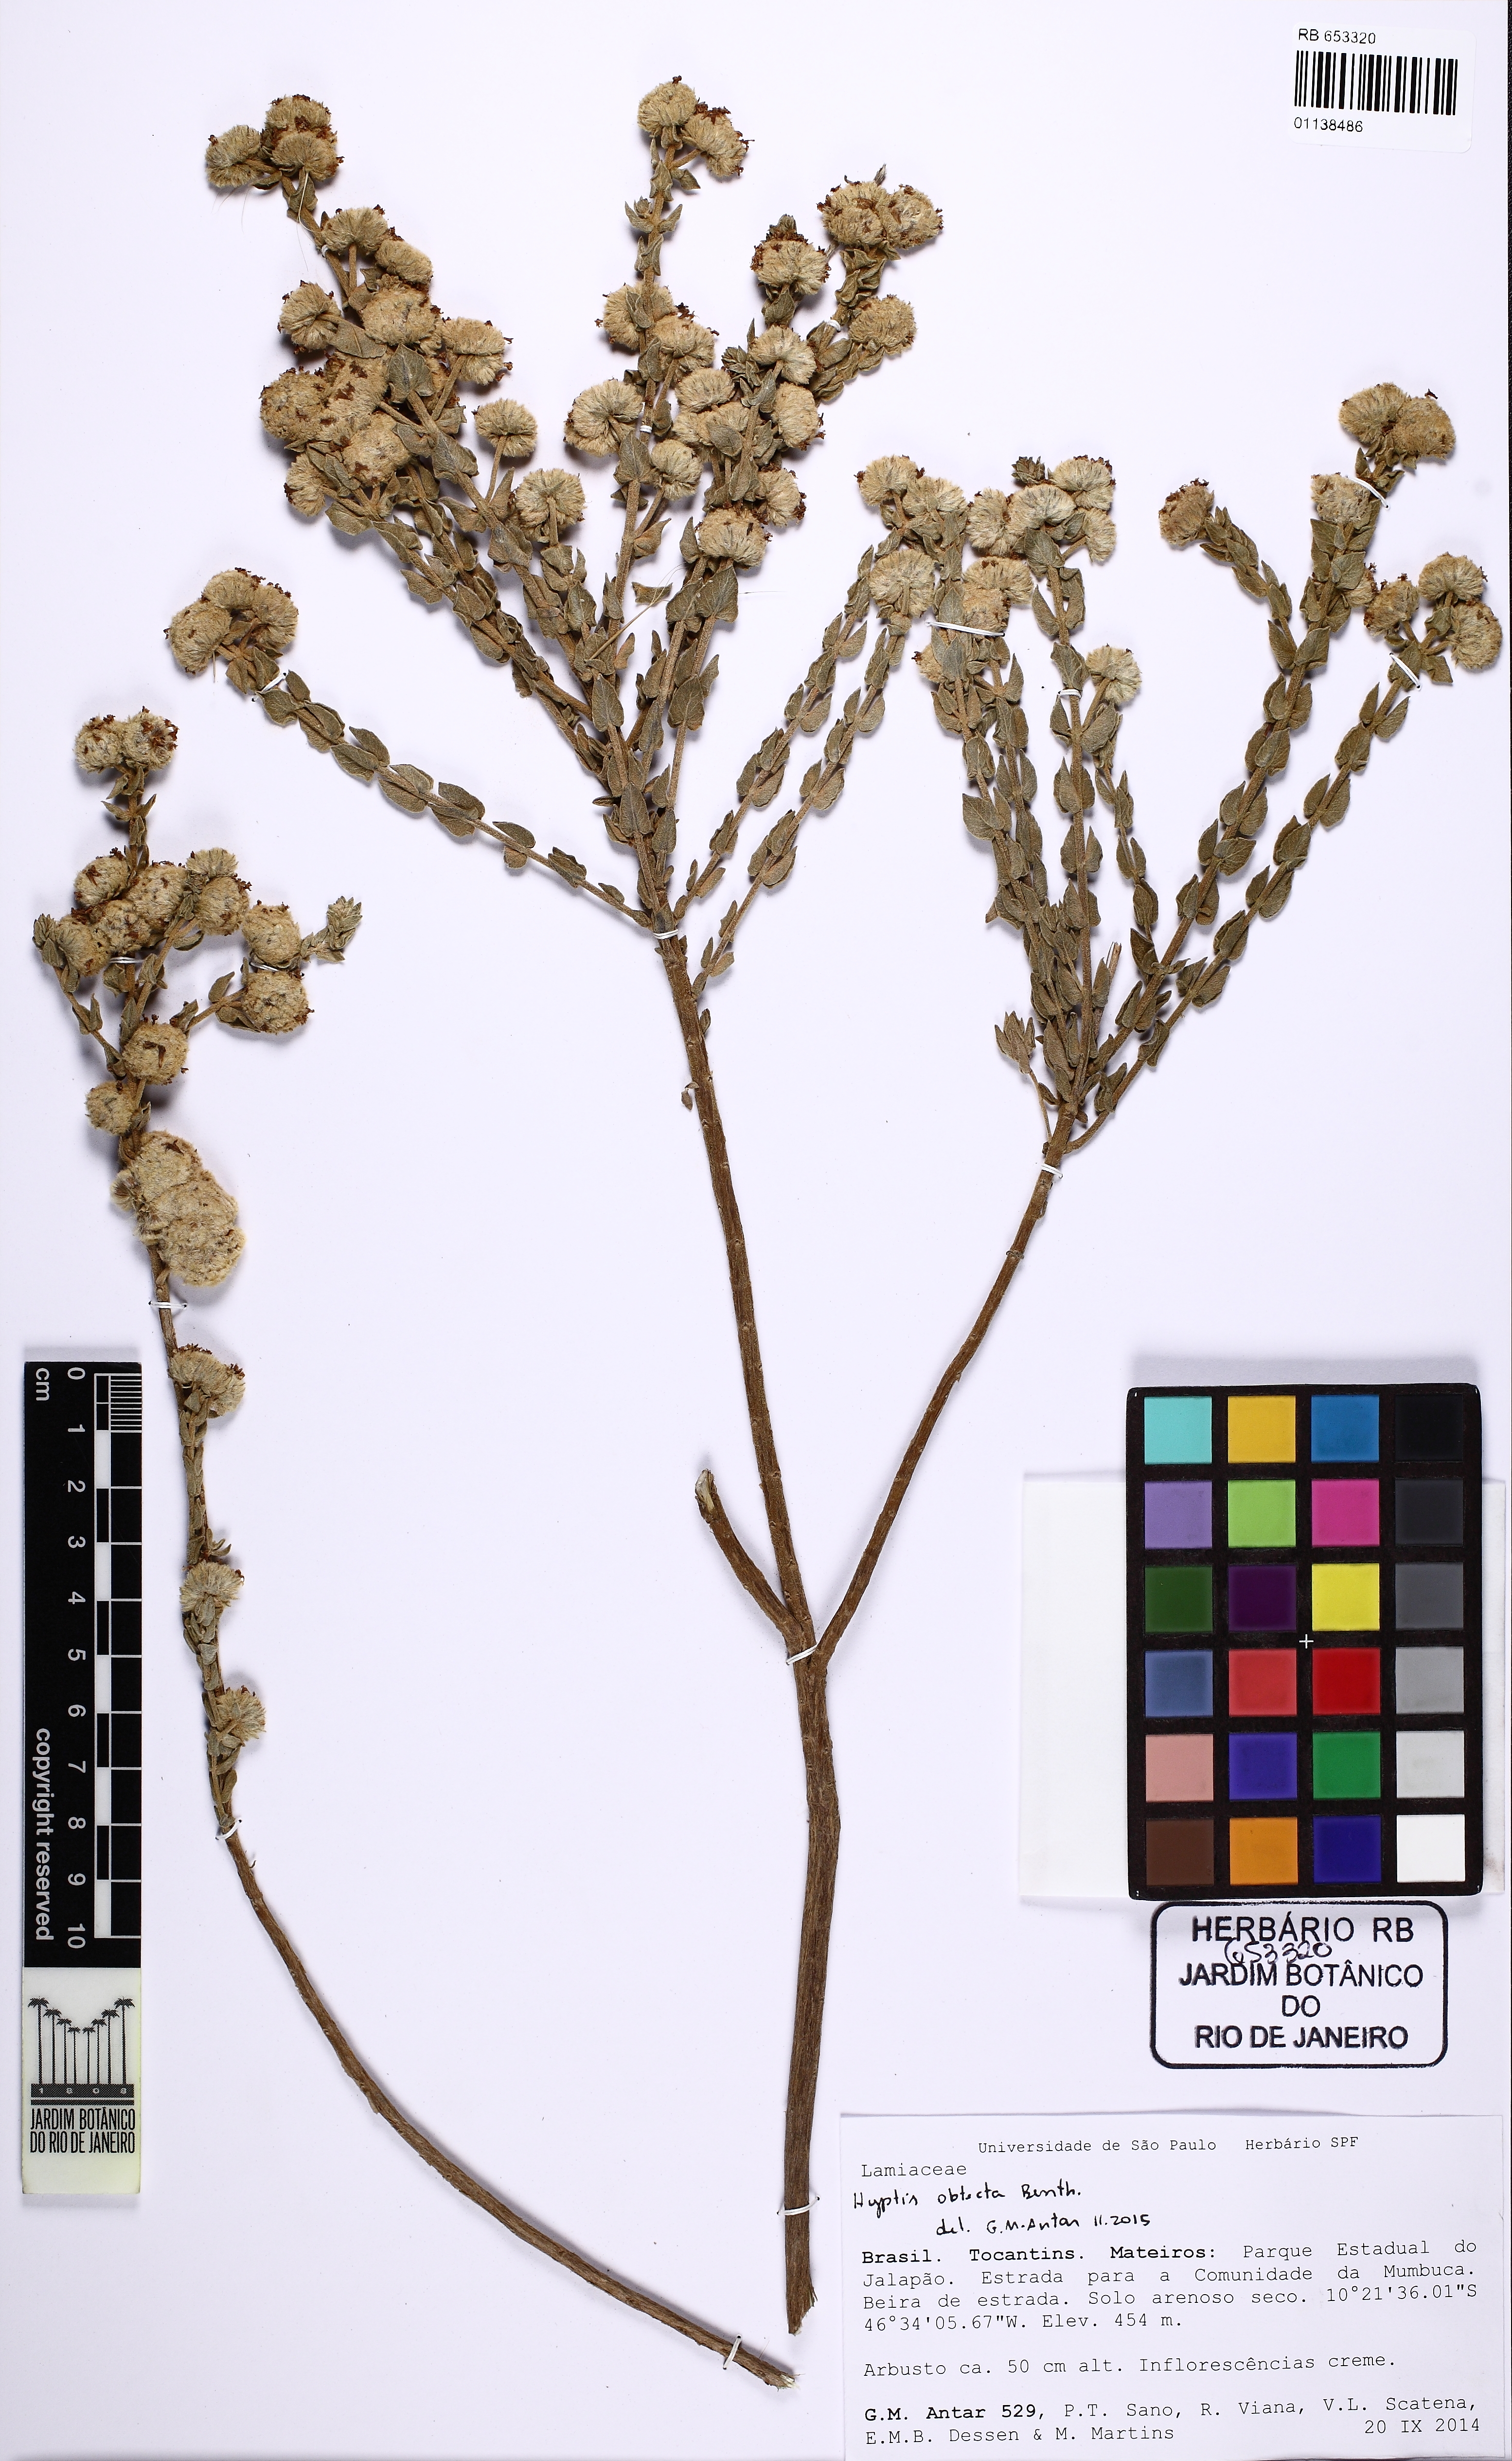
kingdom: Plantae
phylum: Tracheophyta
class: Magnoliopsida
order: Lamiales
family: Lamiaceae
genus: Hyptis
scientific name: Hyptis obtecta
